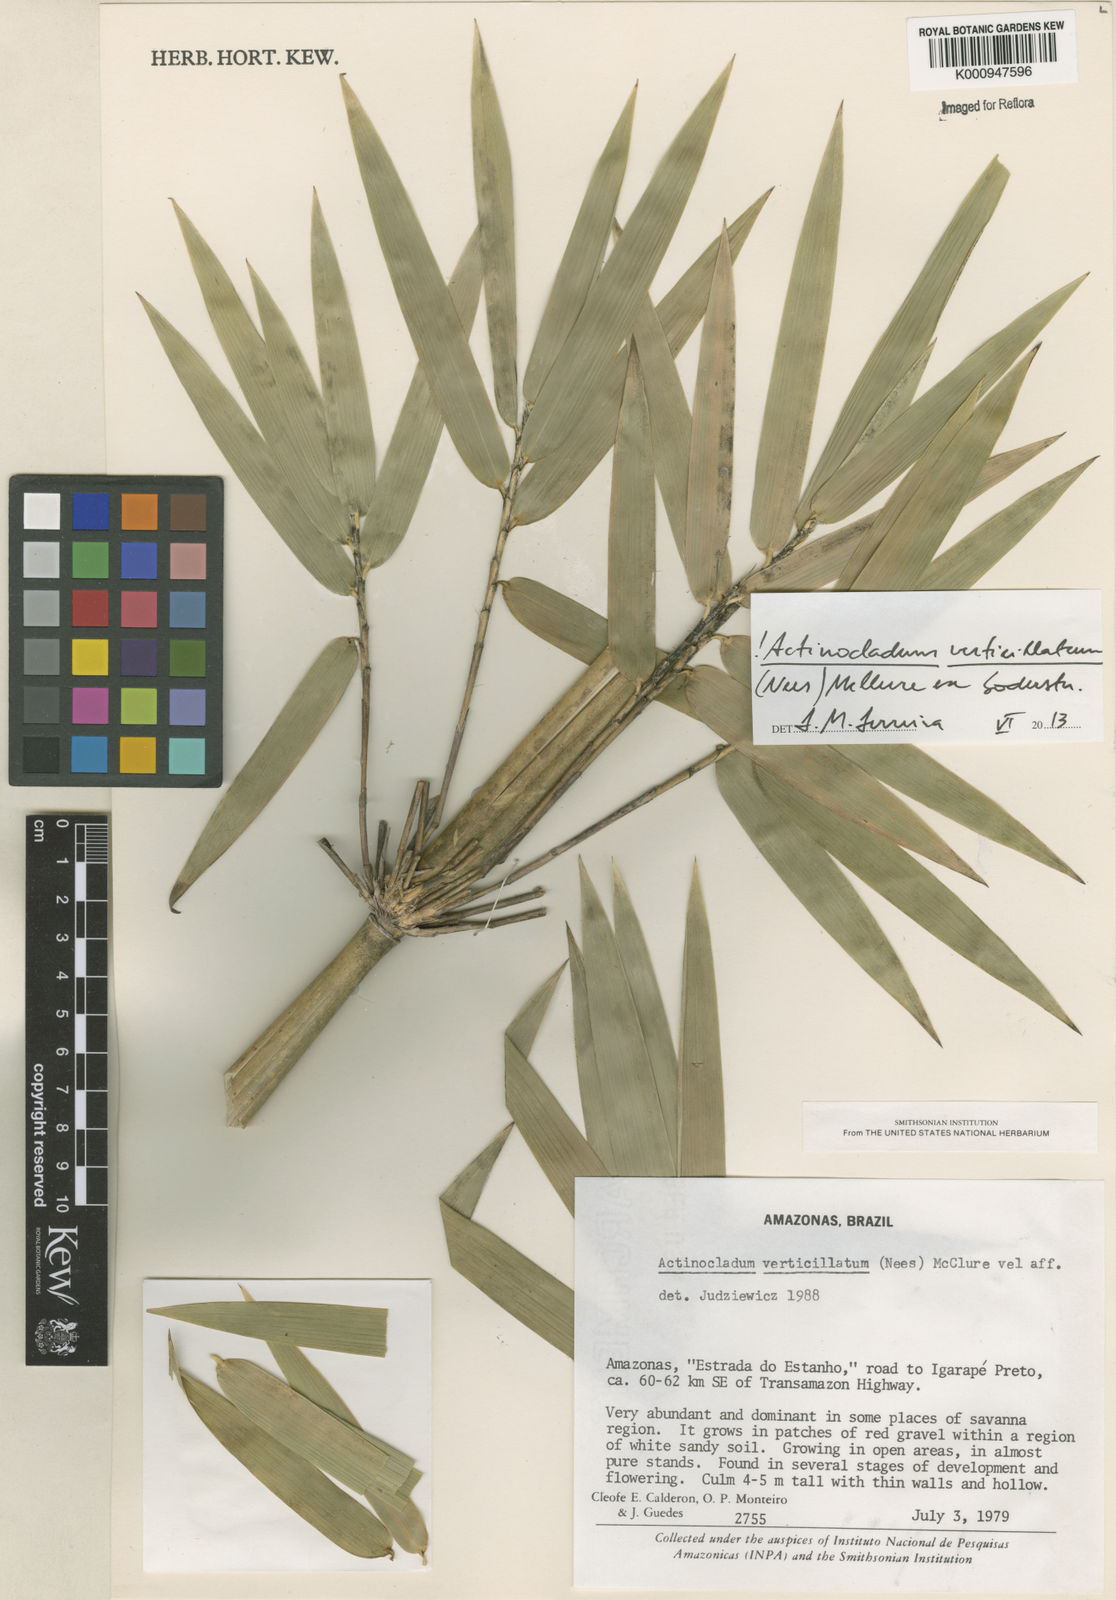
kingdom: Plantae
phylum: Tracheophyta
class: Liliopsida
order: Poales
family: Poaceae
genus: Actinocladum
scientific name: Actinocladum verticillatum
